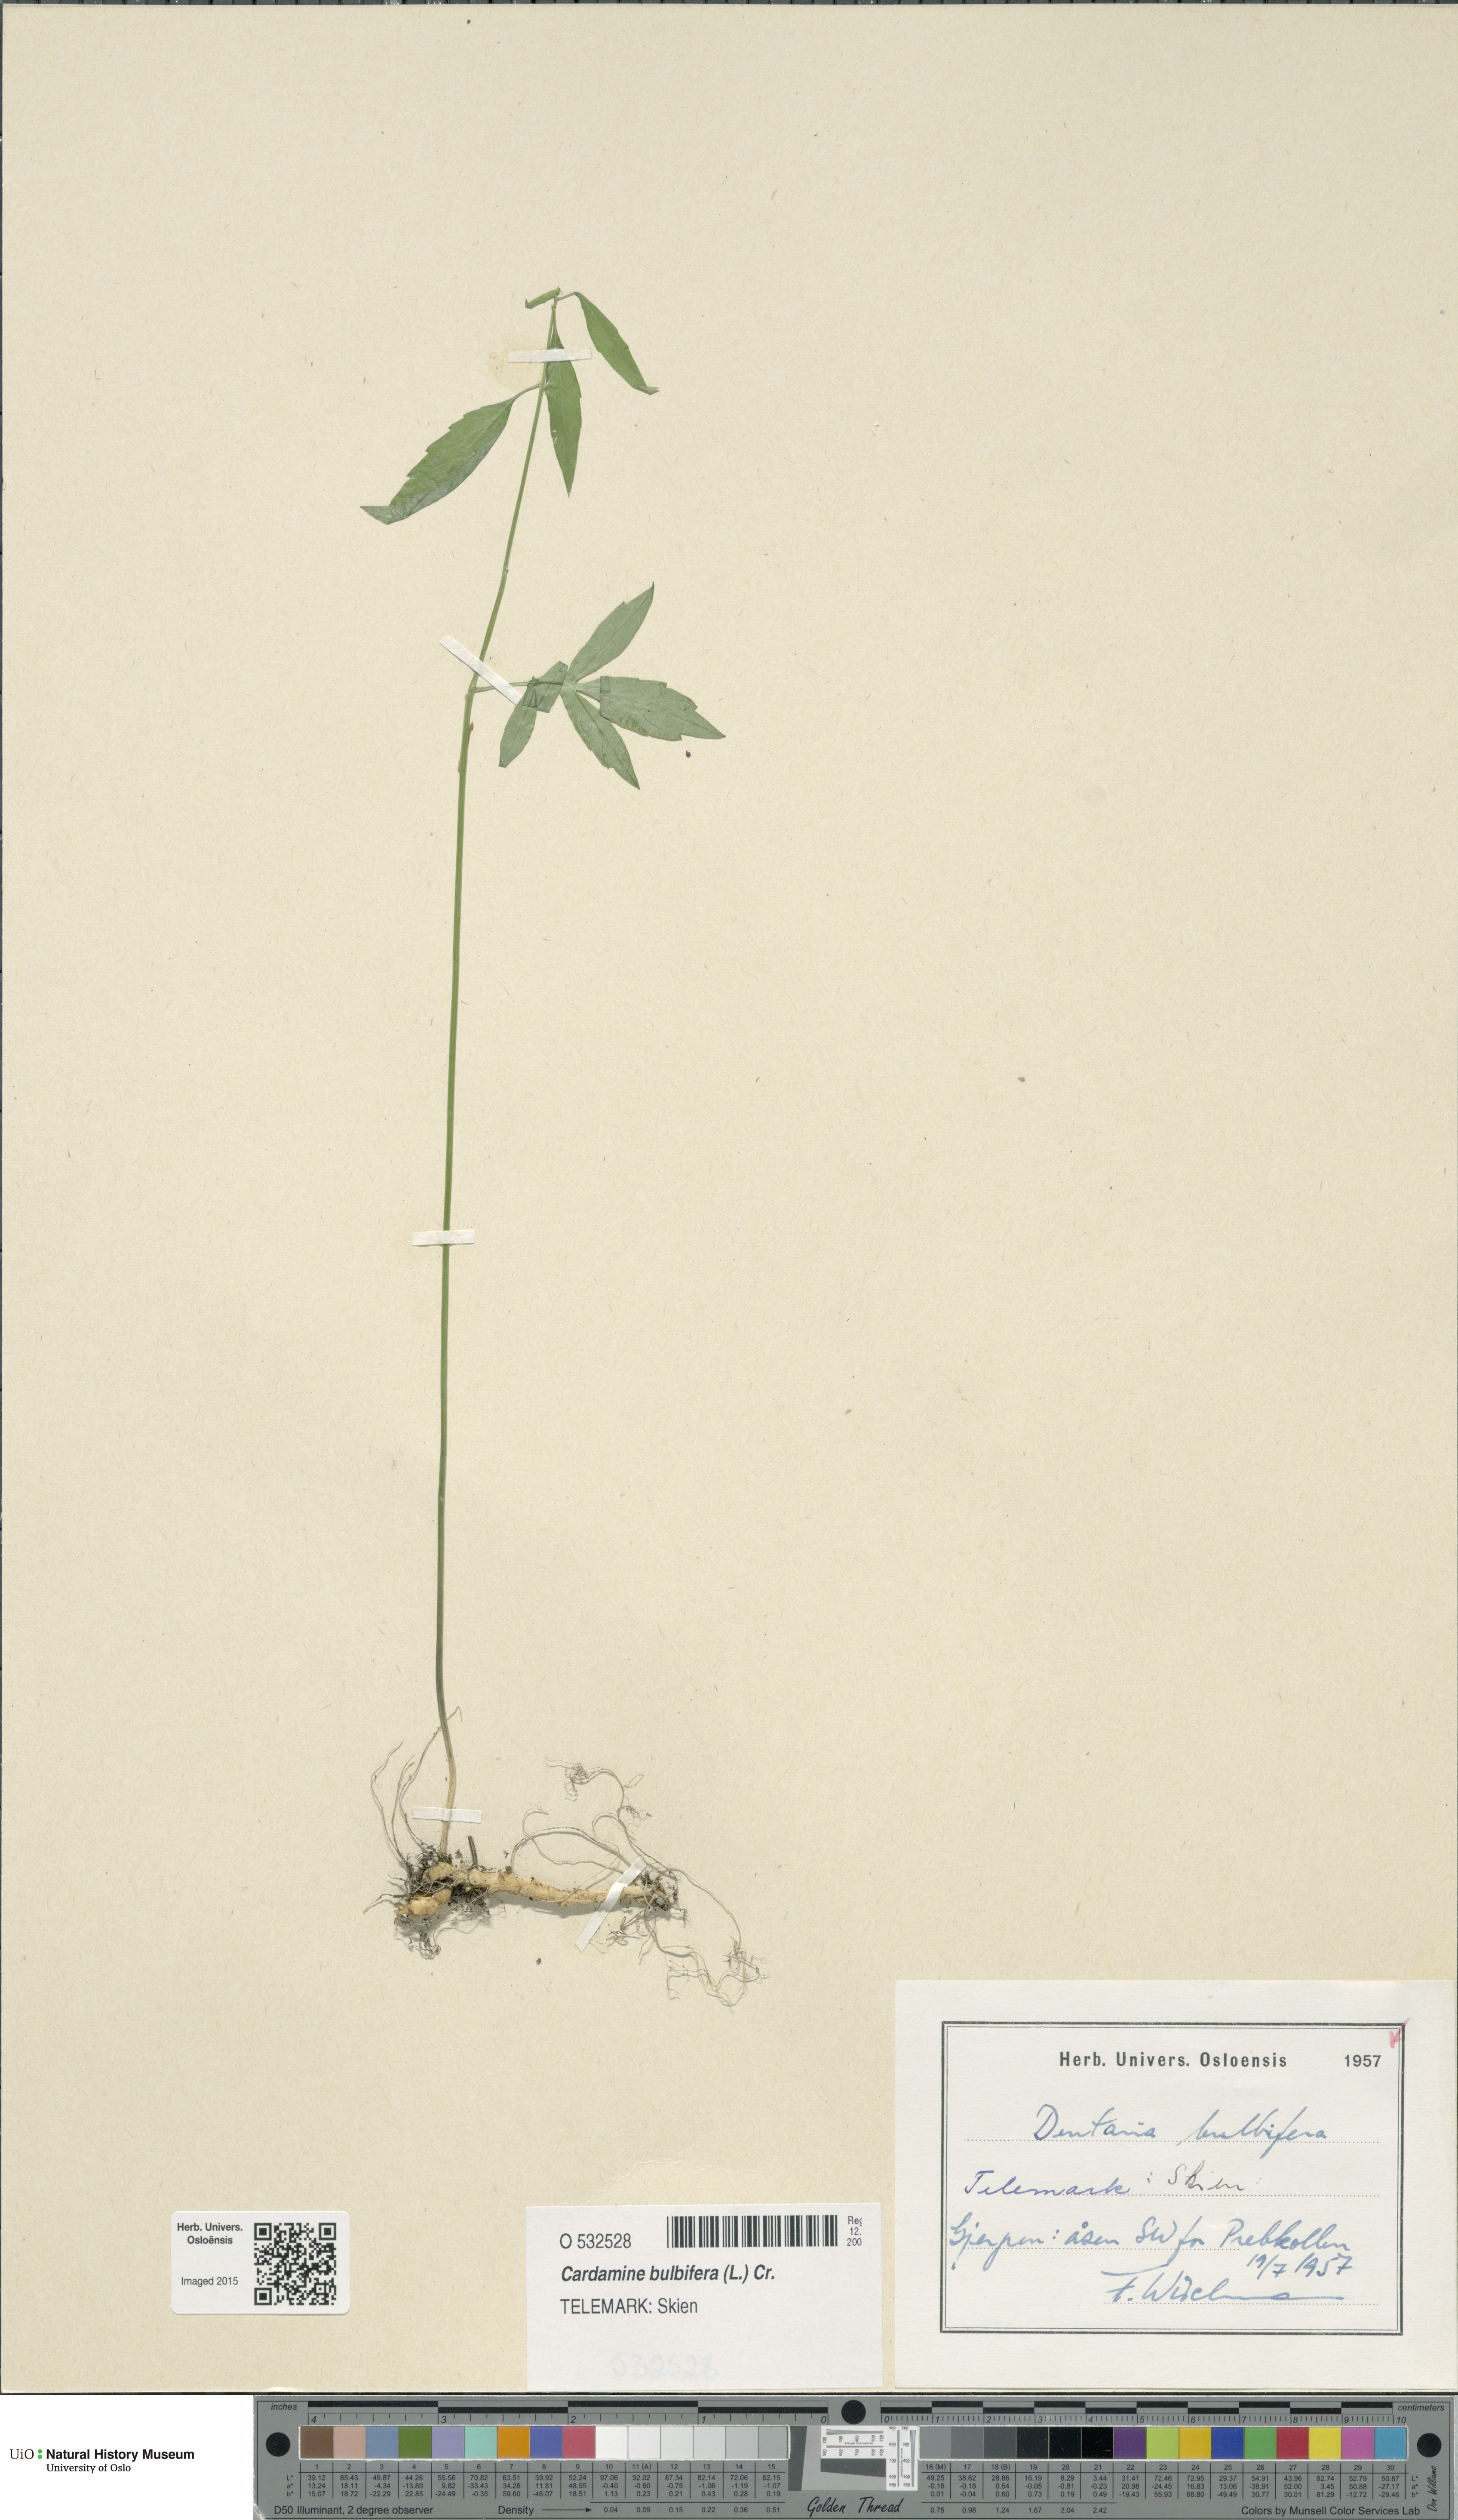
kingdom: Plantae
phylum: Tracheophyta
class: Magnoliopsida
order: Brassicales
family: Brassicaceae
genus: Cardamine
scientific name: Cardamine bulbifera
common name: Coralroot bittercress
